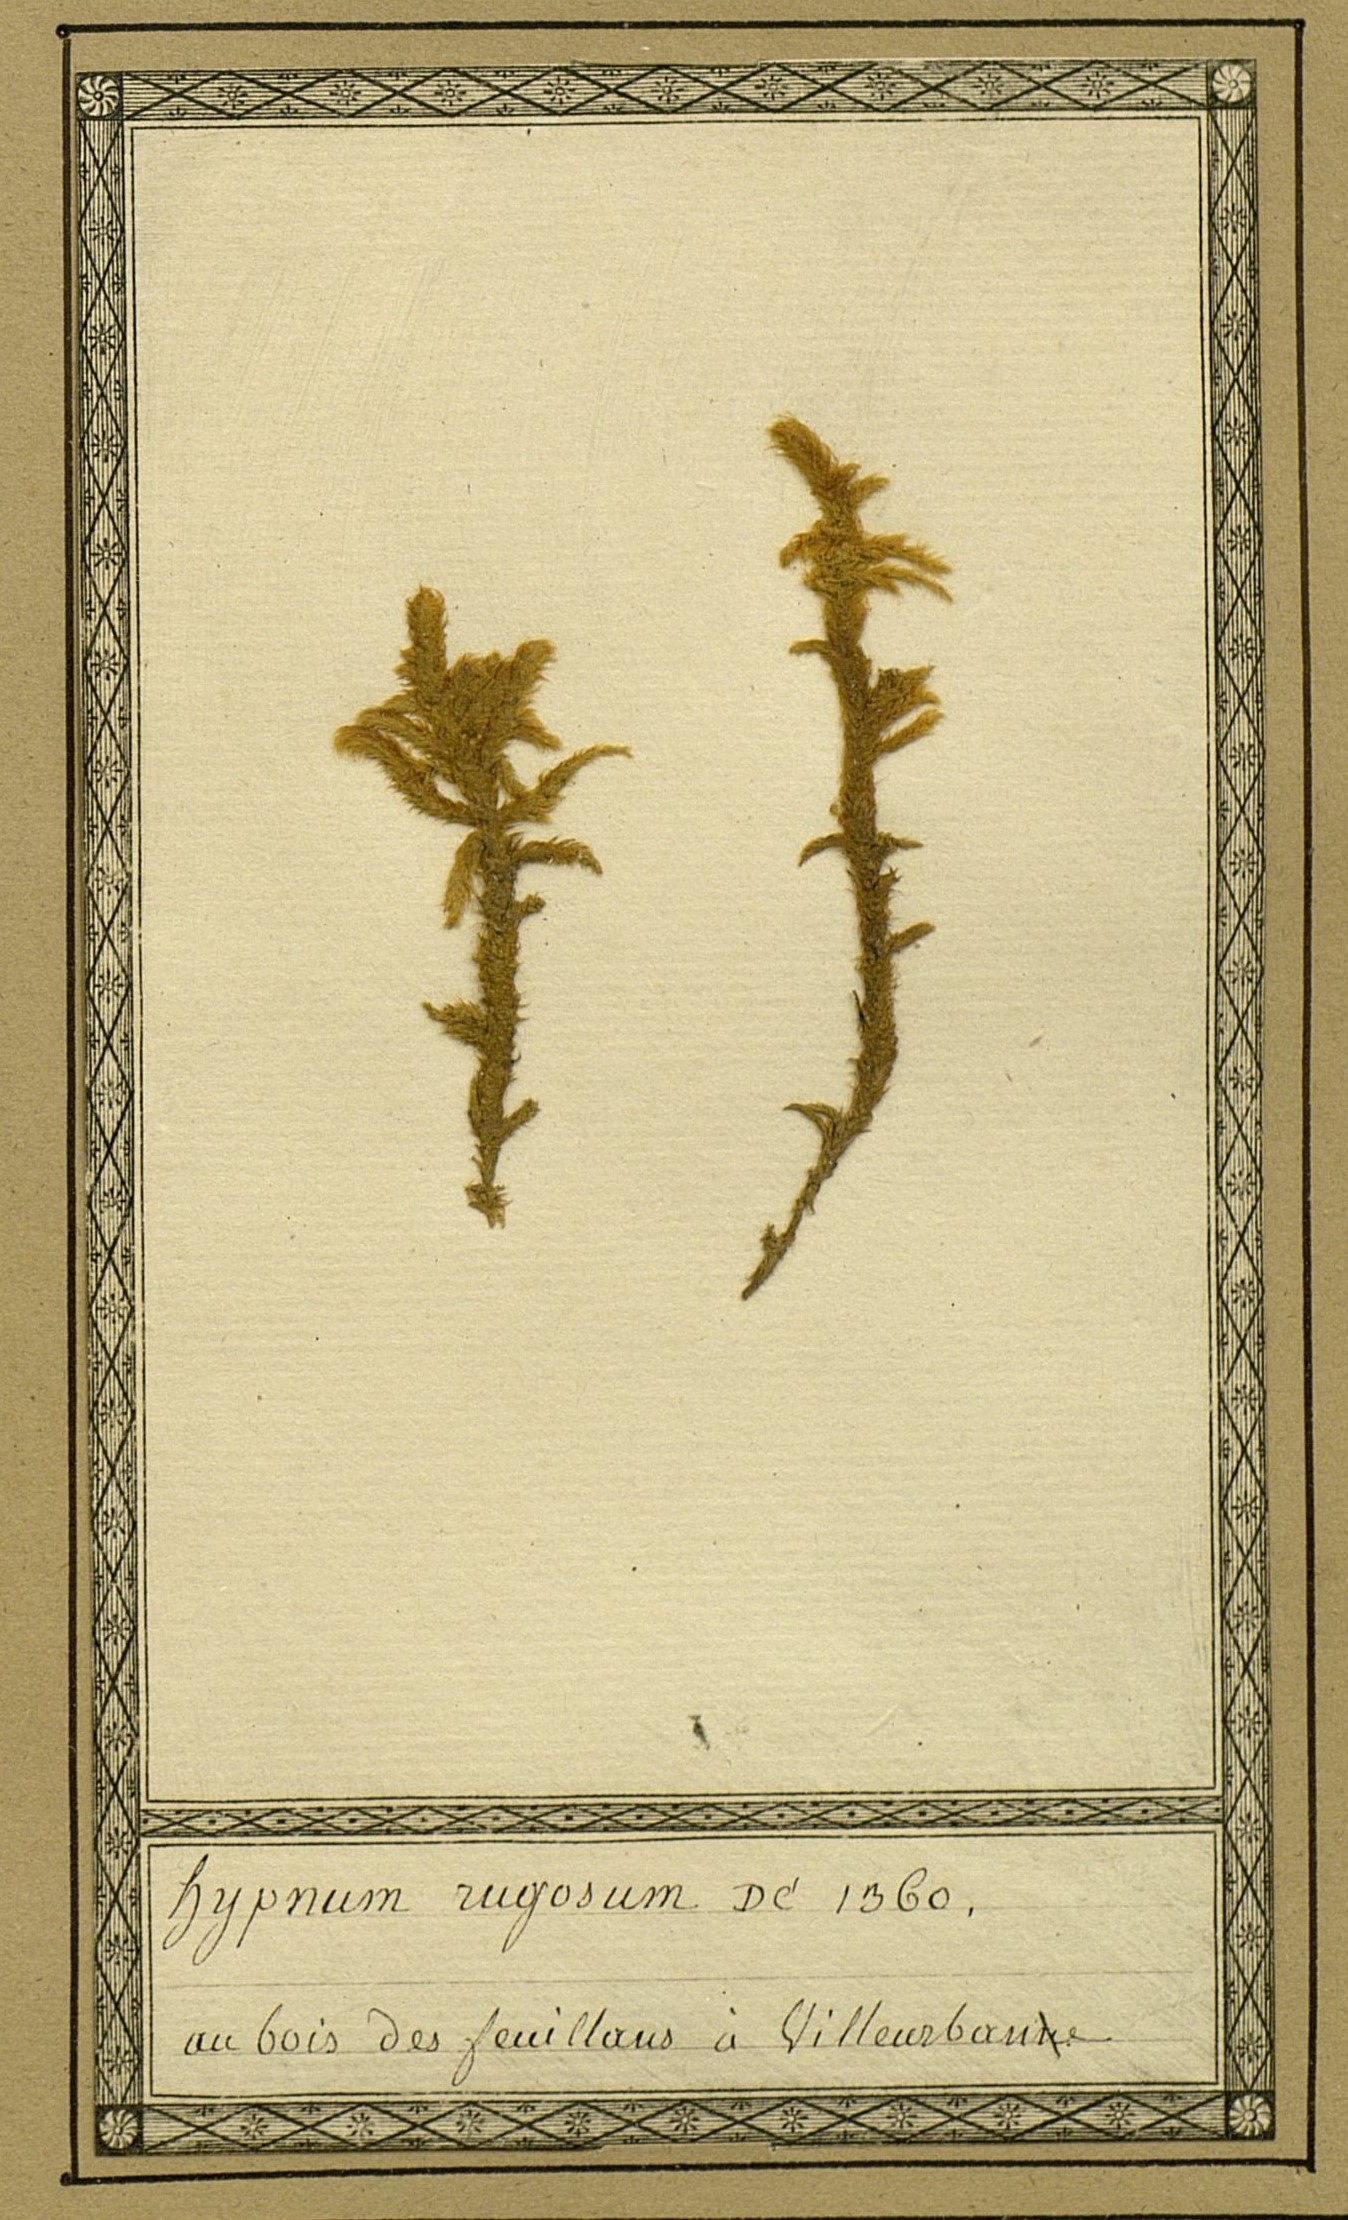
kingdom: Plantae
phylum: Bryophyta
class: Bryopsida
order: Hypnales
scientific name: Hypnales
